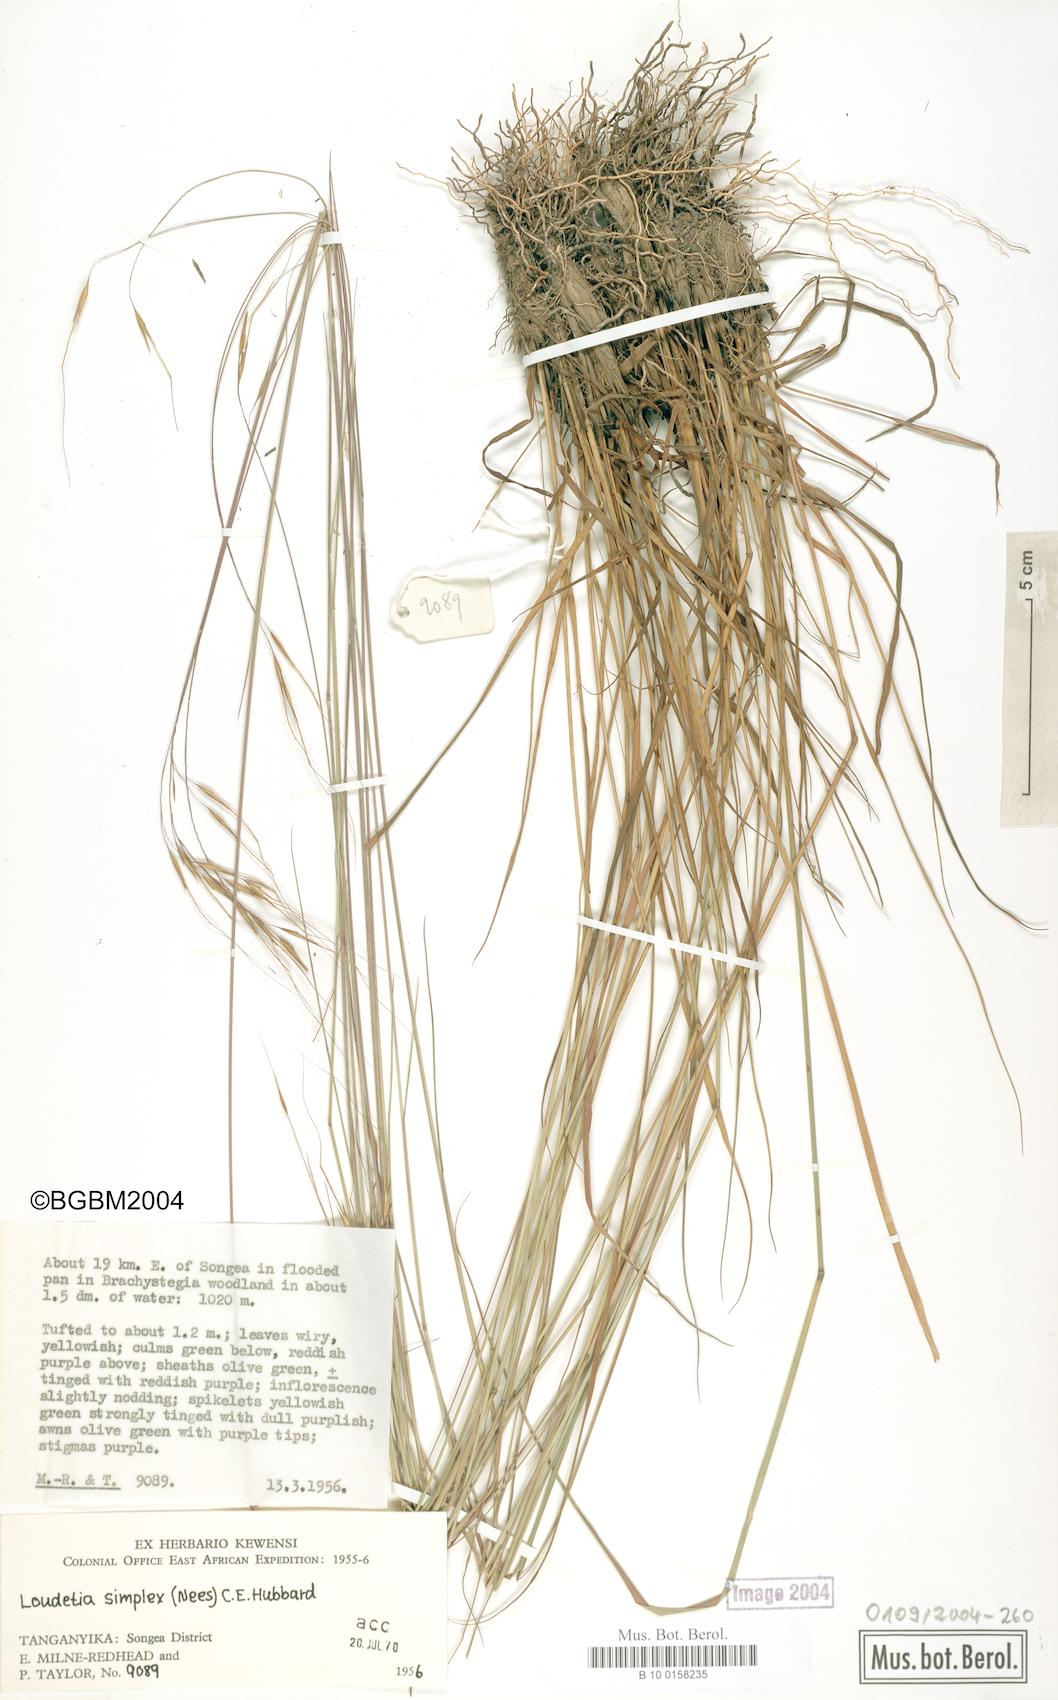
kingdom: Plantae
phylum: Tracheophyta
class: Liliopsida
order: Poales
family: Poaceae
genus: Loudetia
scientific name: Loudetia simplex
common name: Common russet grass
